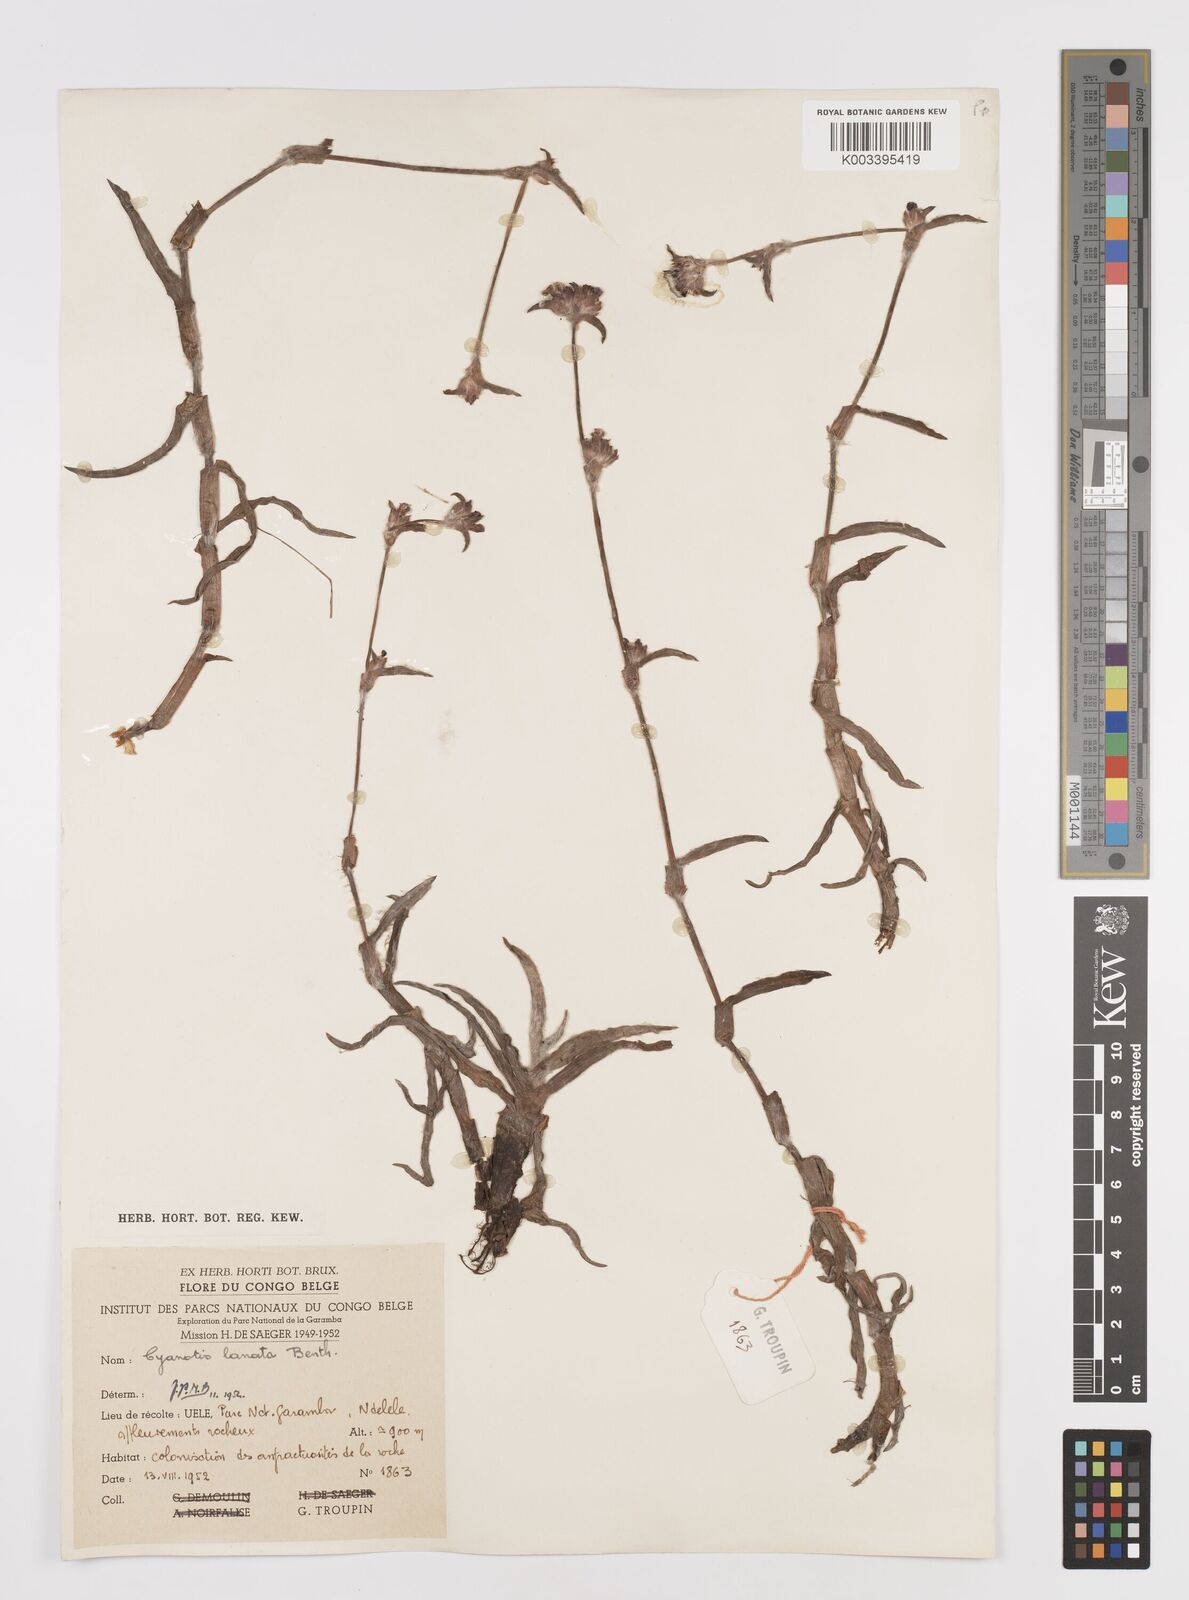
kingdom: Plantae
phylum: Tracheophyta
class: Liliopsida
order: Commelinales
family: Commelinaceae
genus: Cyanotis
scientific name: Cyanotis lanata
